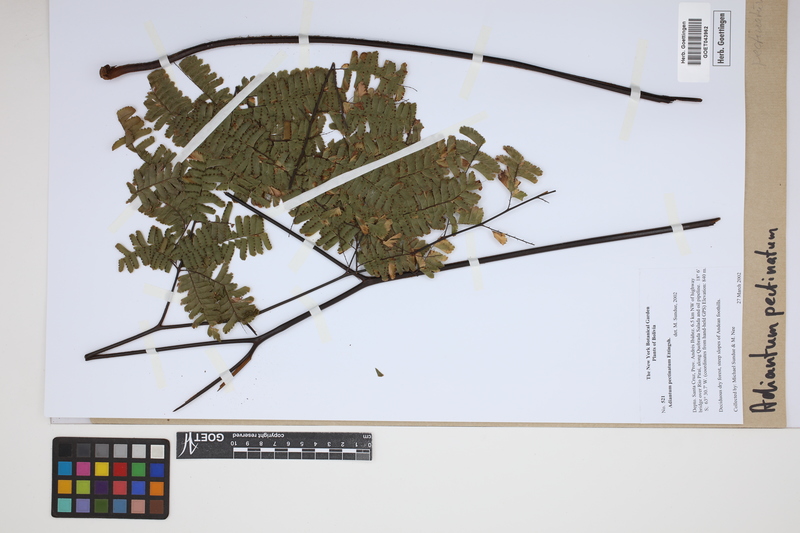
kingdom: Plantae
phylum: Tracheophyta
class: Polypodiopsida
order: Polypodiales
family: Pteridaceae
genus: Adiantum
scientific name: Adiantum pectinatum
